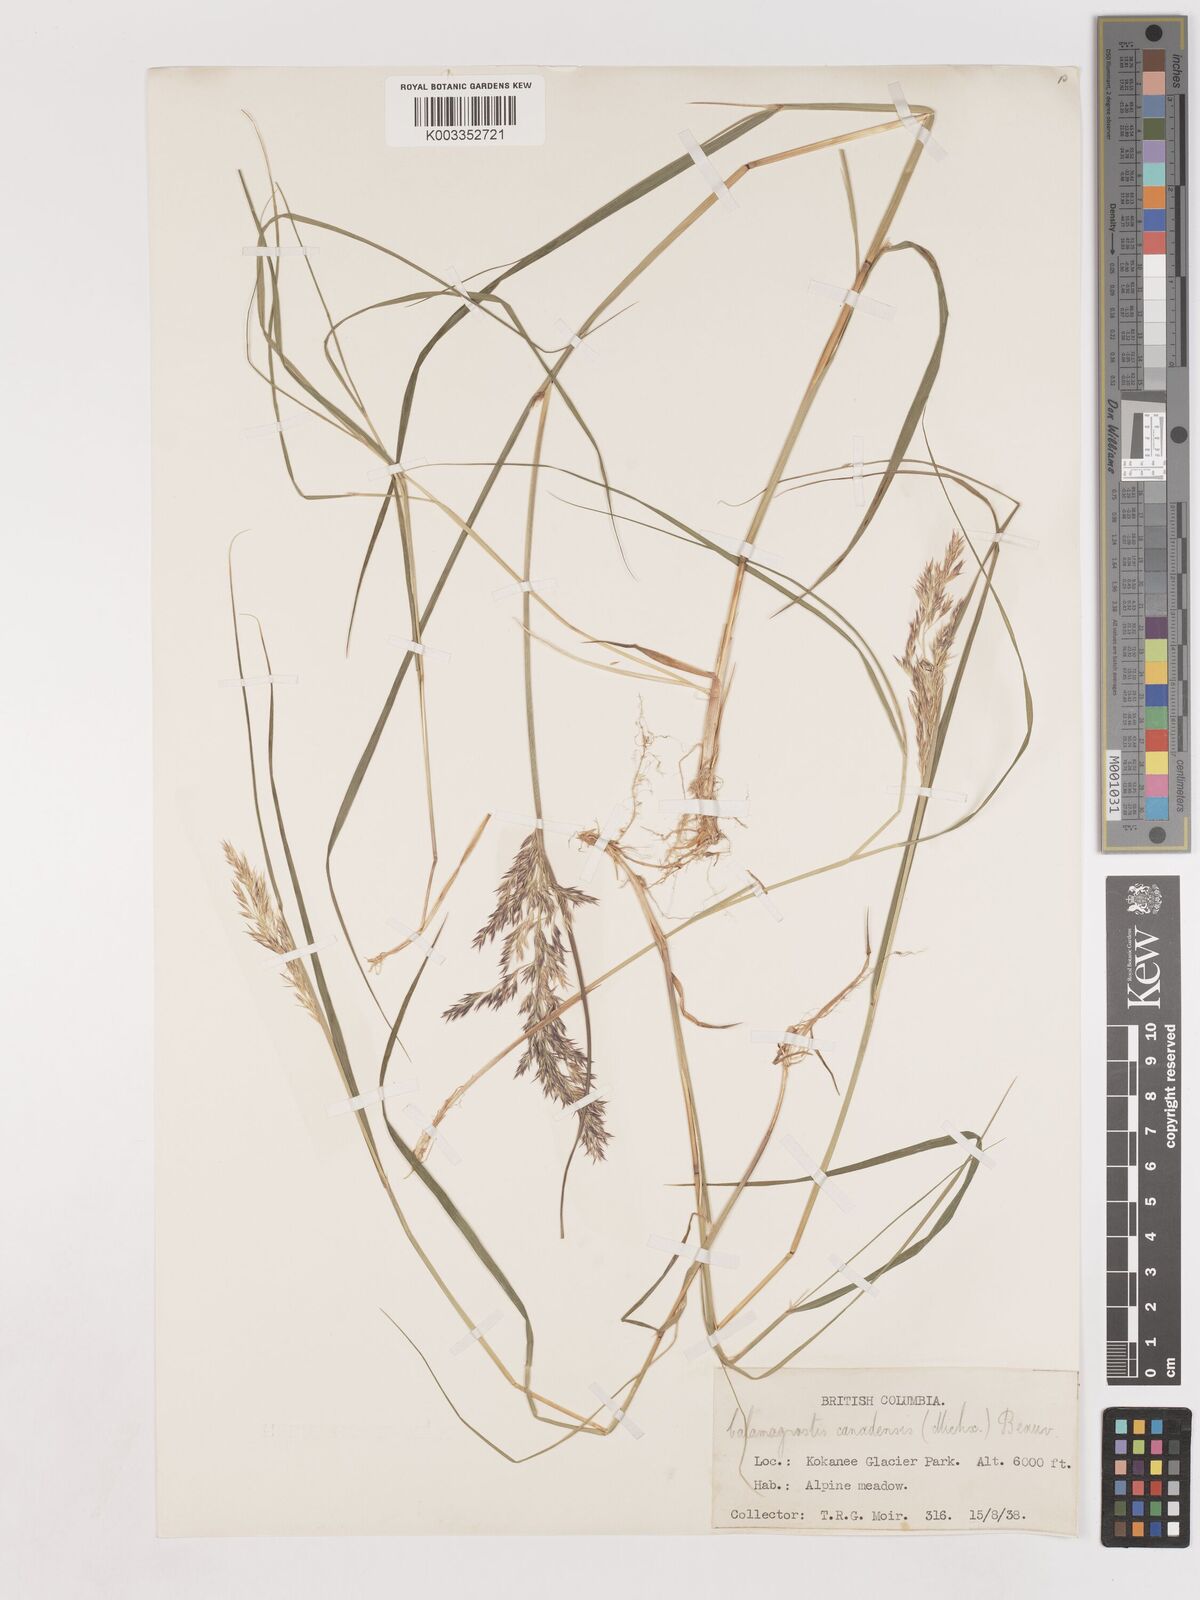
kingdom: Plantae
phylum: Tracheophyta
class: Liliopsida
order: Poales
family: Poaceae
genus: Calamagrostis
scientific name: Calamagrostis canadensis
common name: Canada bluejoint
